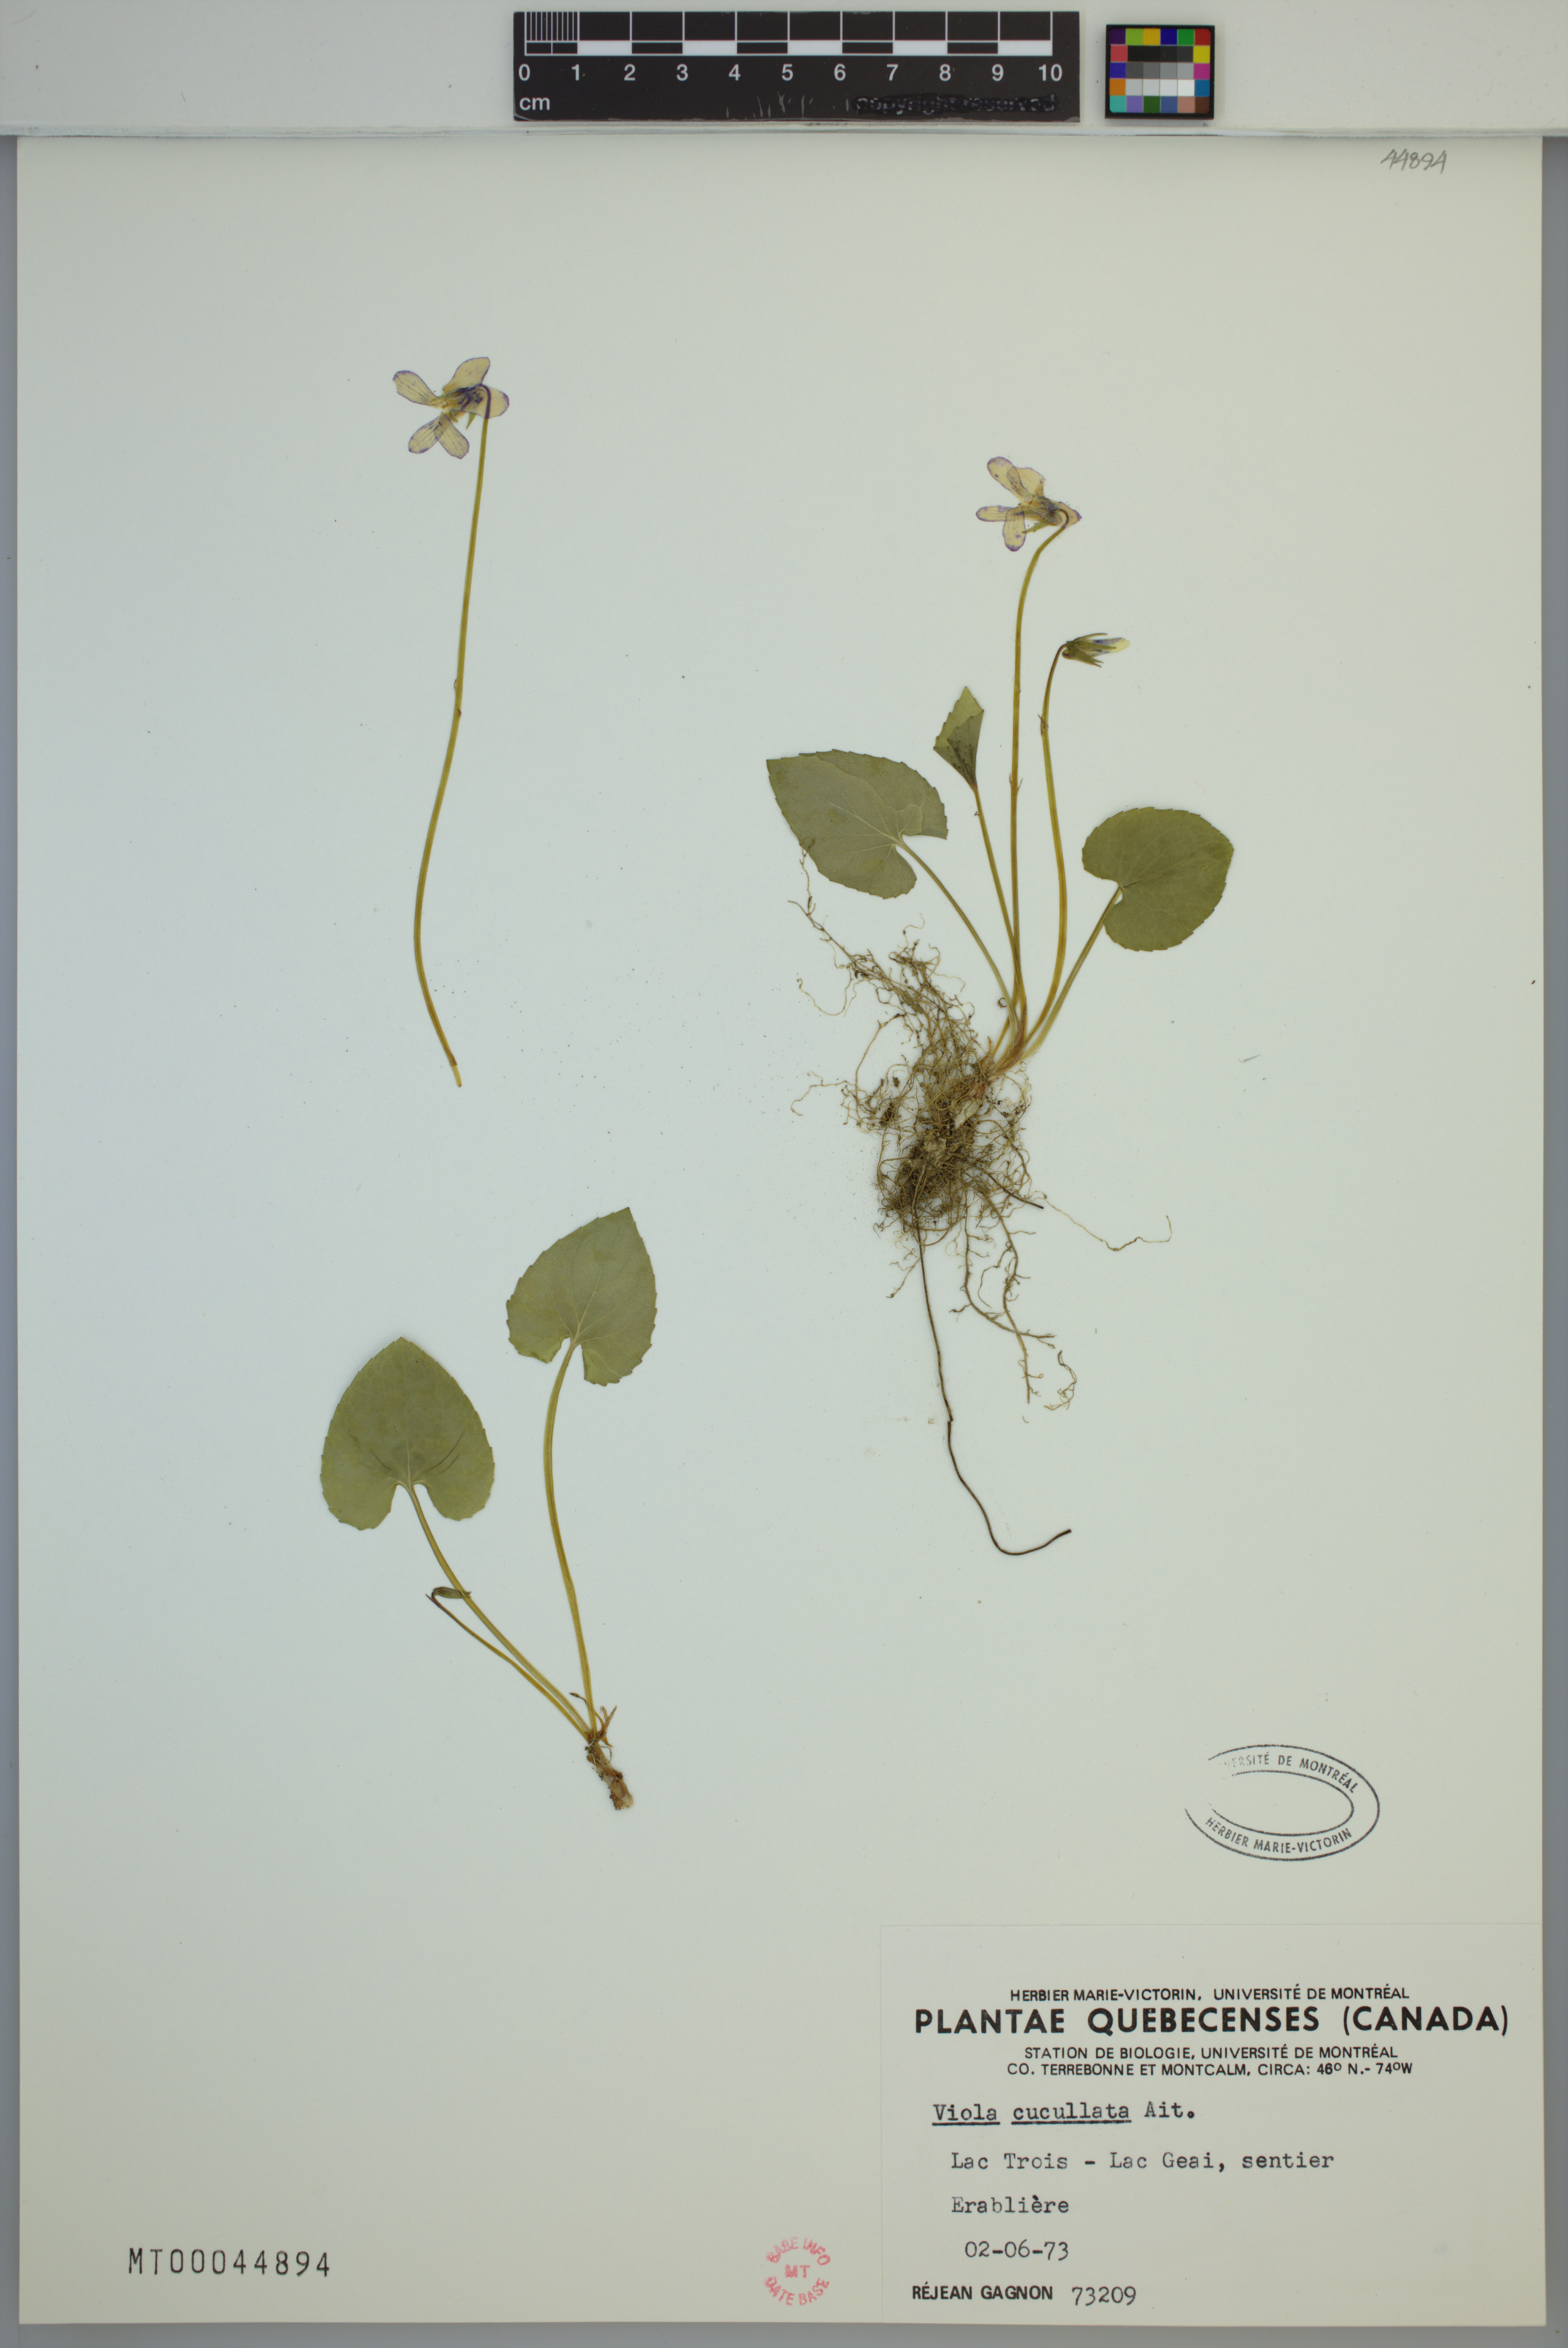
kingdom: Plantae
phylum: Tracheophyta
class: Magnoliopsida
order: Malpighiales
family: Violaceae
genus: Viola
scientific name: Viola cucullata
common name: Marsh blue violet
